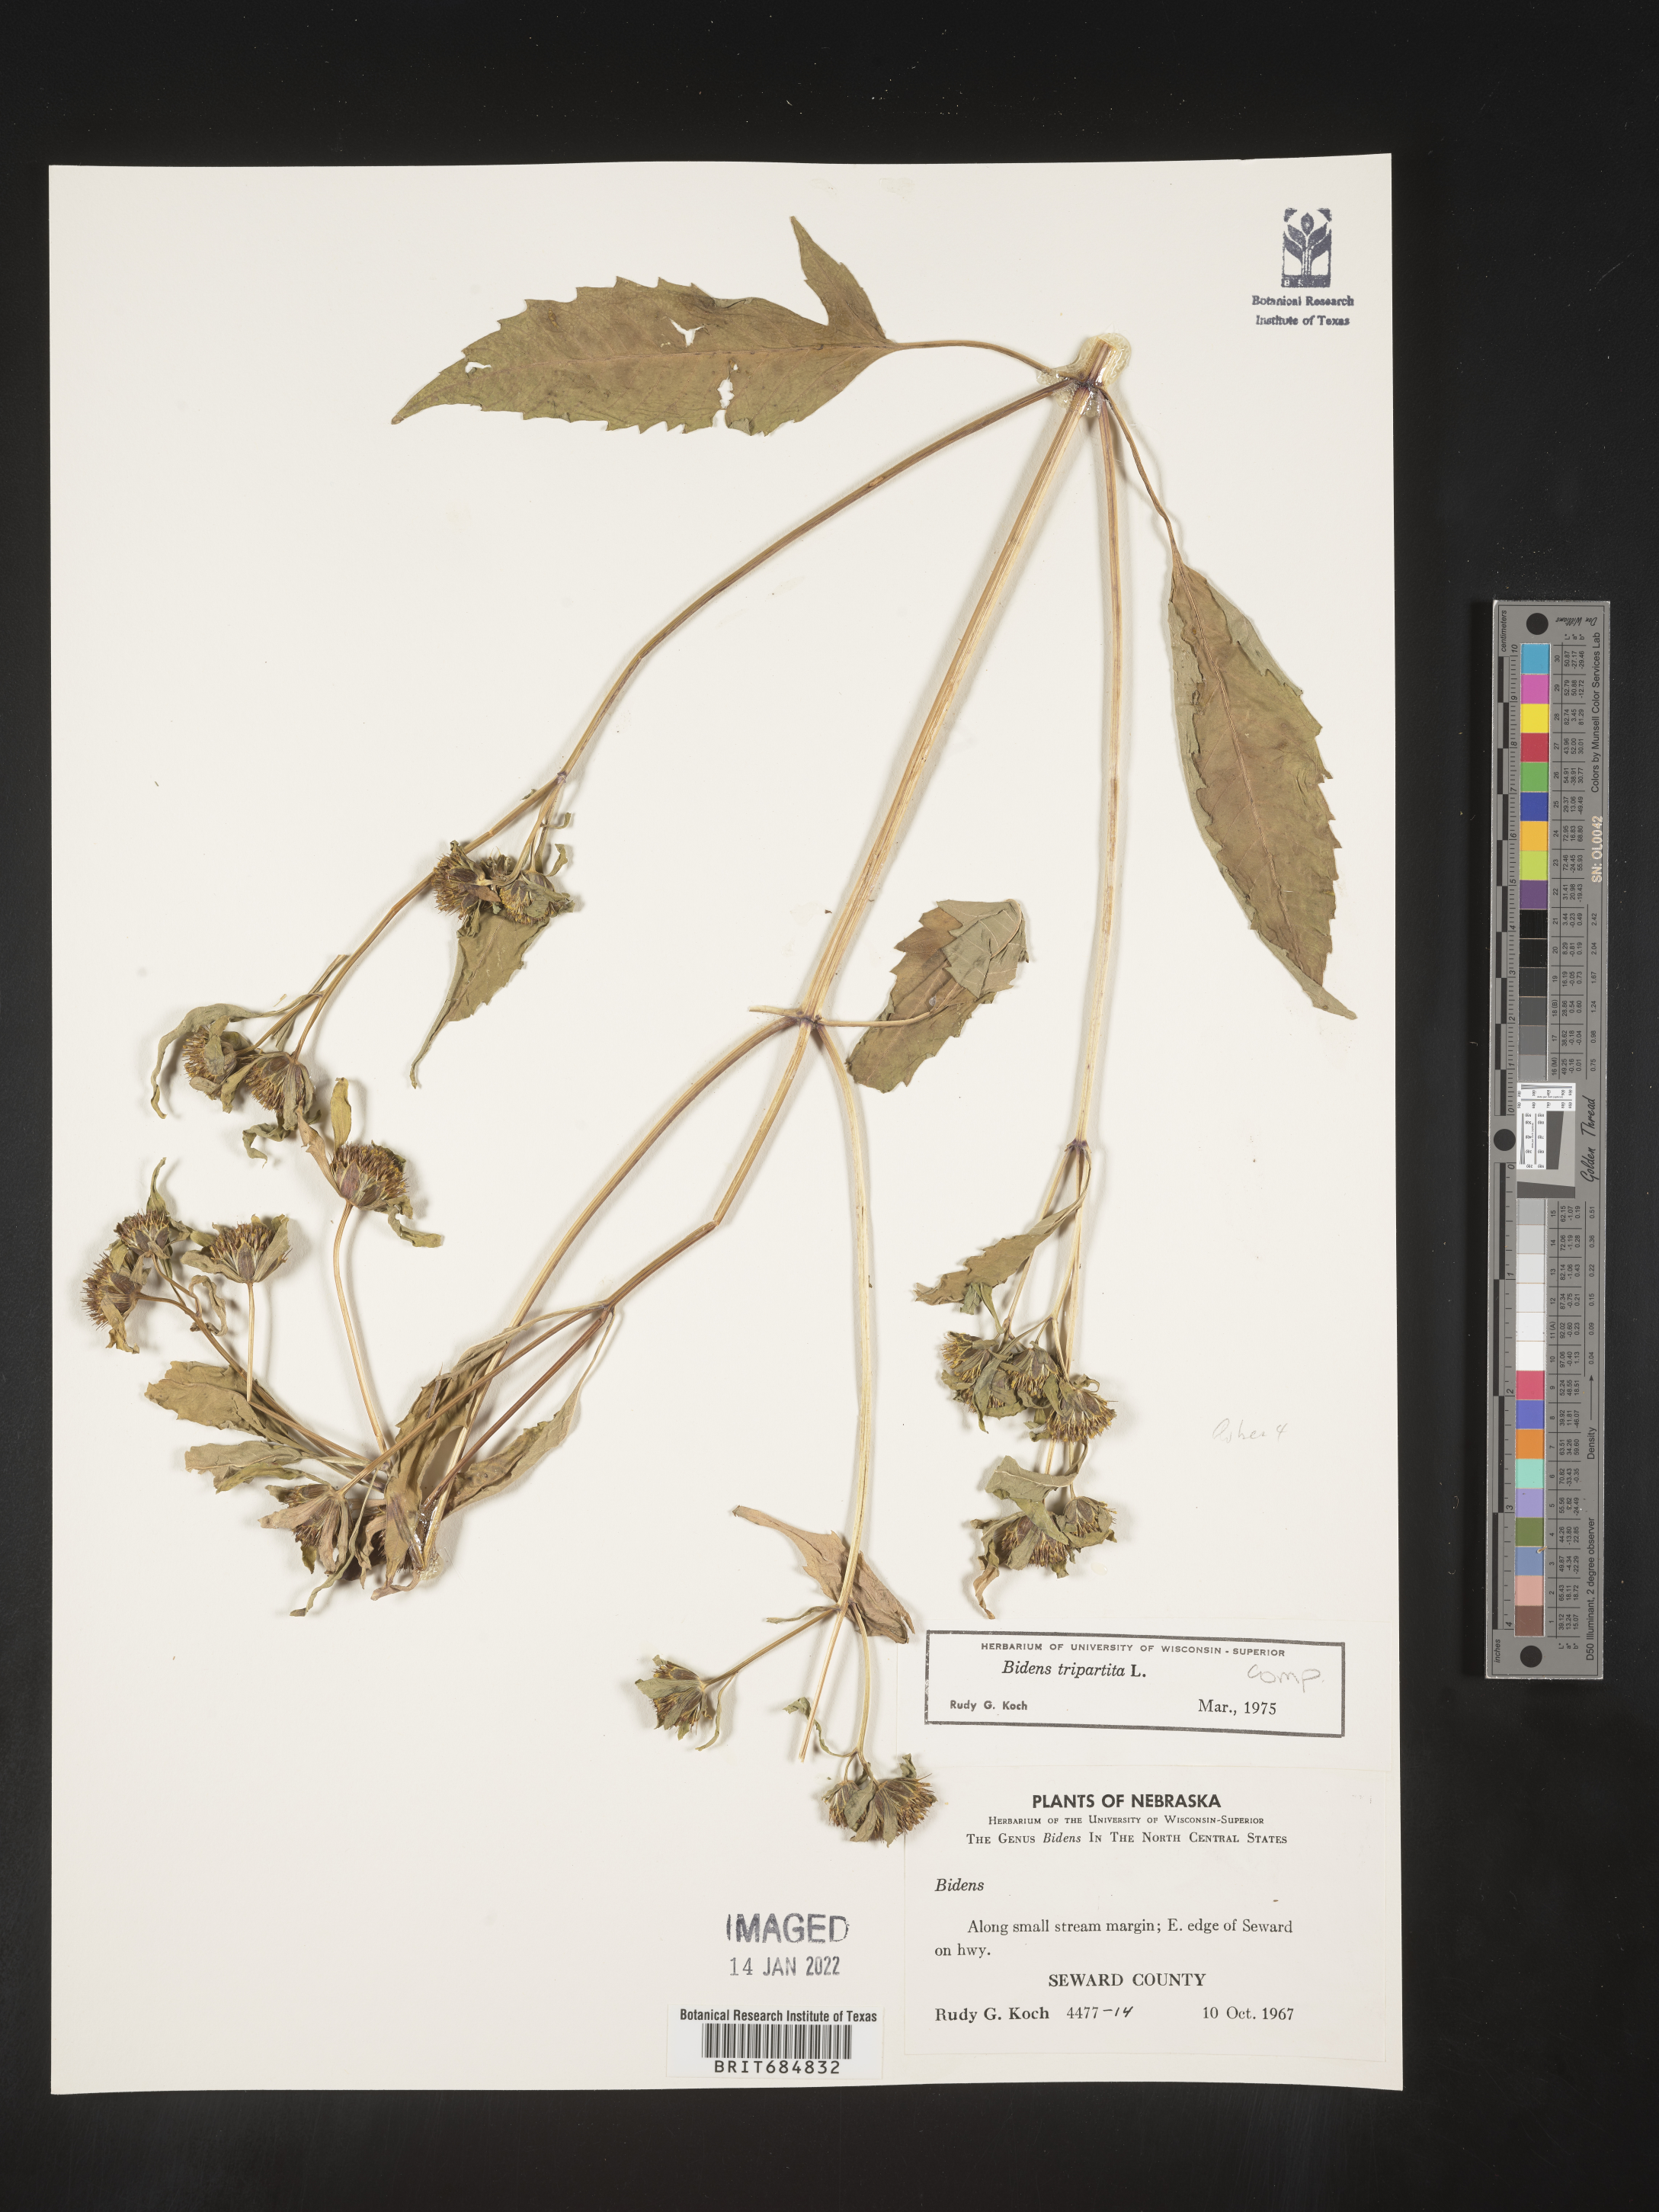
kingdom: Plantae
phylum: Tracheophyta
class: Magnoliopsida
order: Asterales
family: Asteraceae
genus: Bidens
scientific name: Bidens tripartita
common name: Trifid bur-marigold
